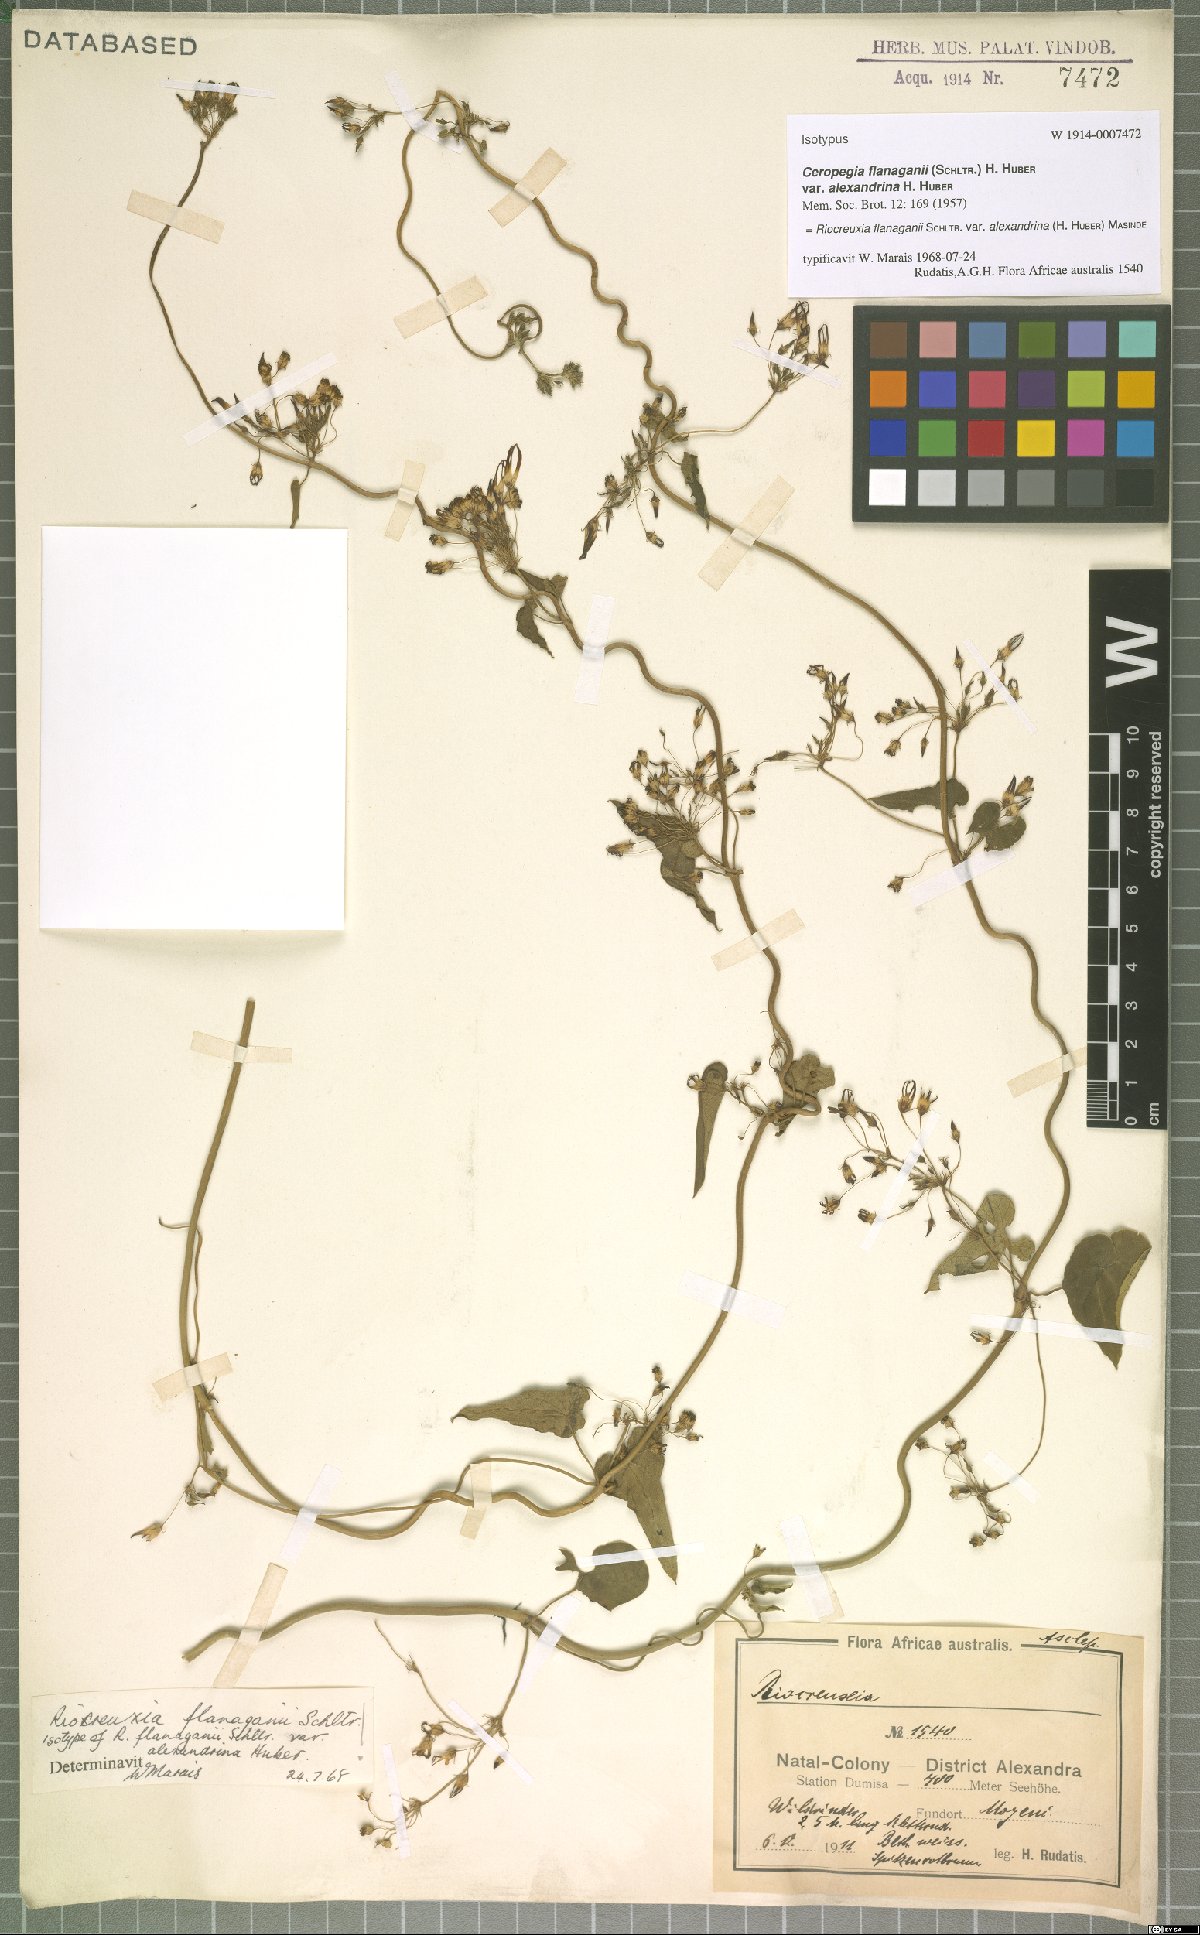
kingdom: Plantae
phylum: Tracheophyta
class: Magnoliopsida
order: Gentianales
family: Apocynaceae
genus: Riocreuxia
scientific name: Riocreuxia alexandrina
